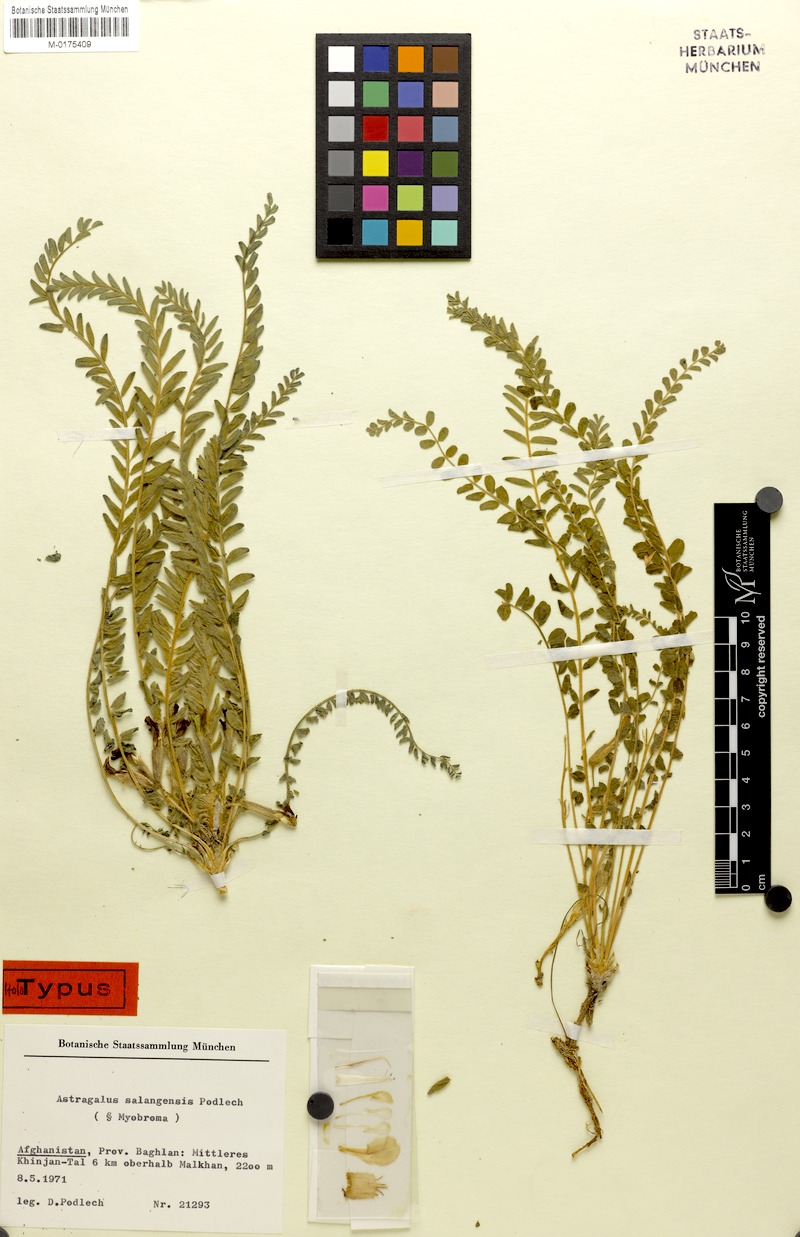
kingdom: Plantae
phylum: Tracheophyta
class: Magnoliopsida
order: Fabales
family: Fabaceae
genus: Astragalus
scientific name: Astragalus salangensis
